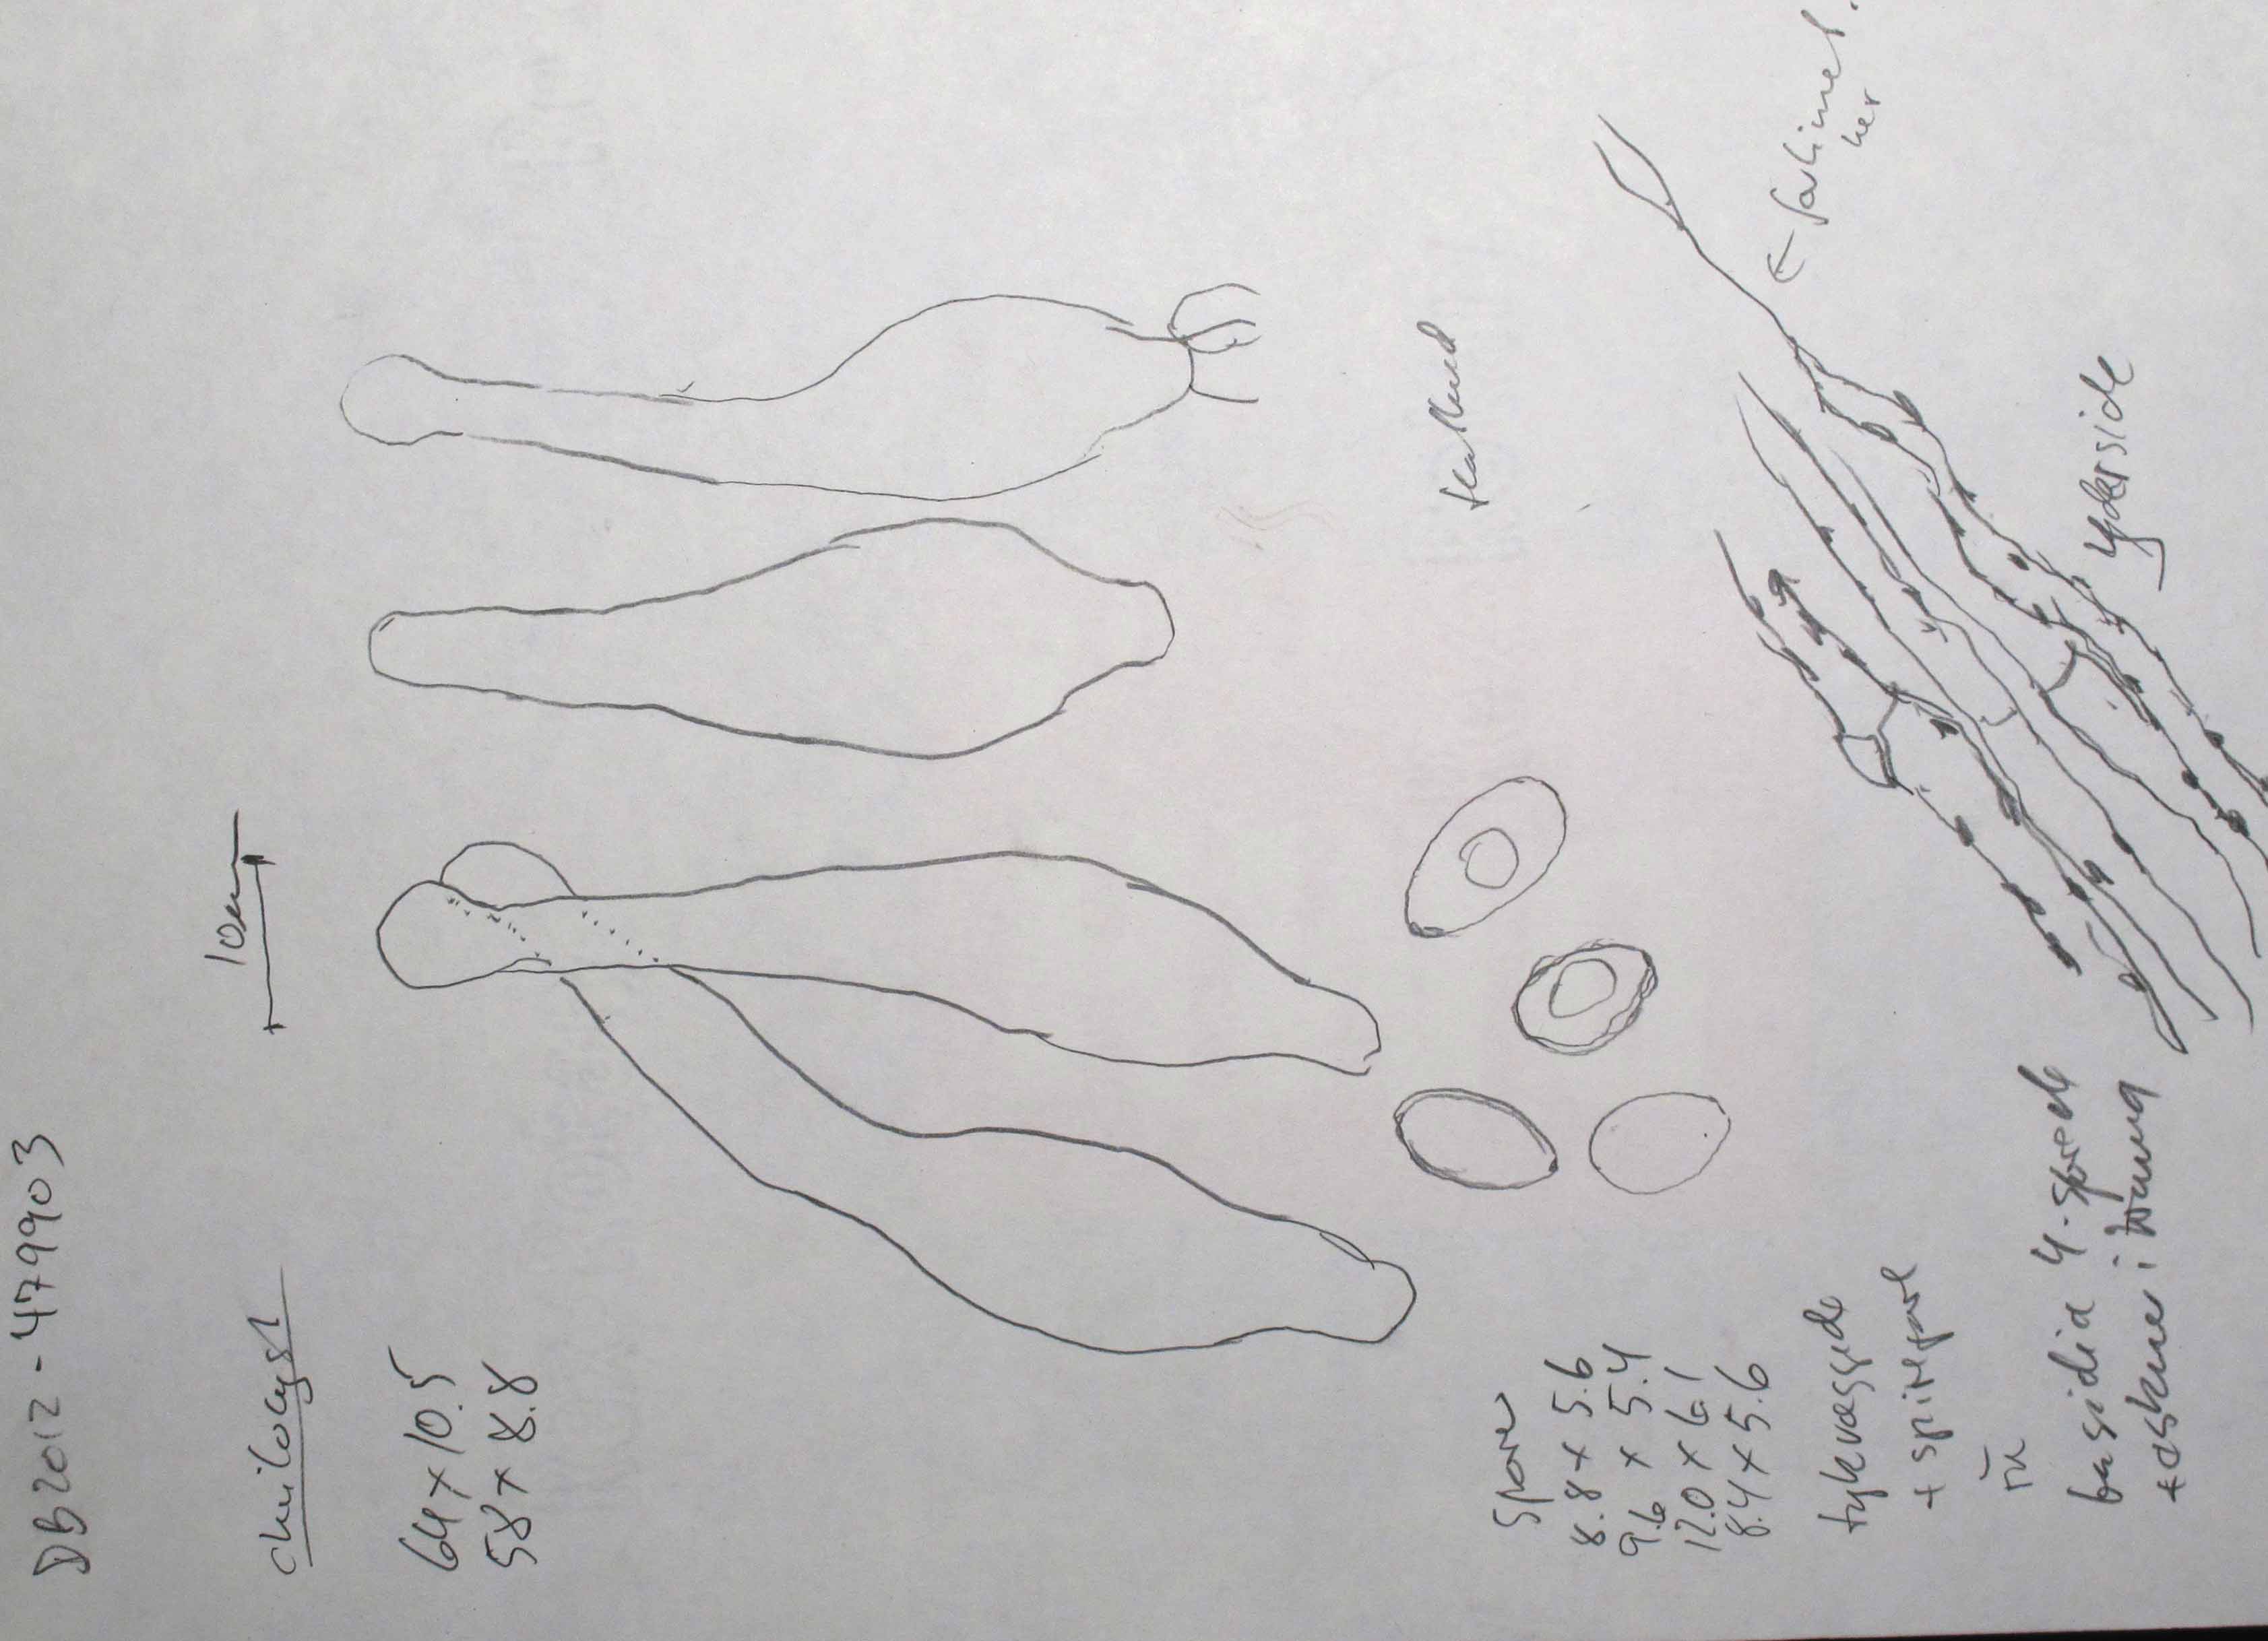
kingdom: Fungi
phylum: Basidiomycota
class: Agaricomycetes
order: Agaricales
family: Hymenogastraceae
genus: Galerina
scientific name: Galerina marginata
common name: randbæltet hjelmhat
